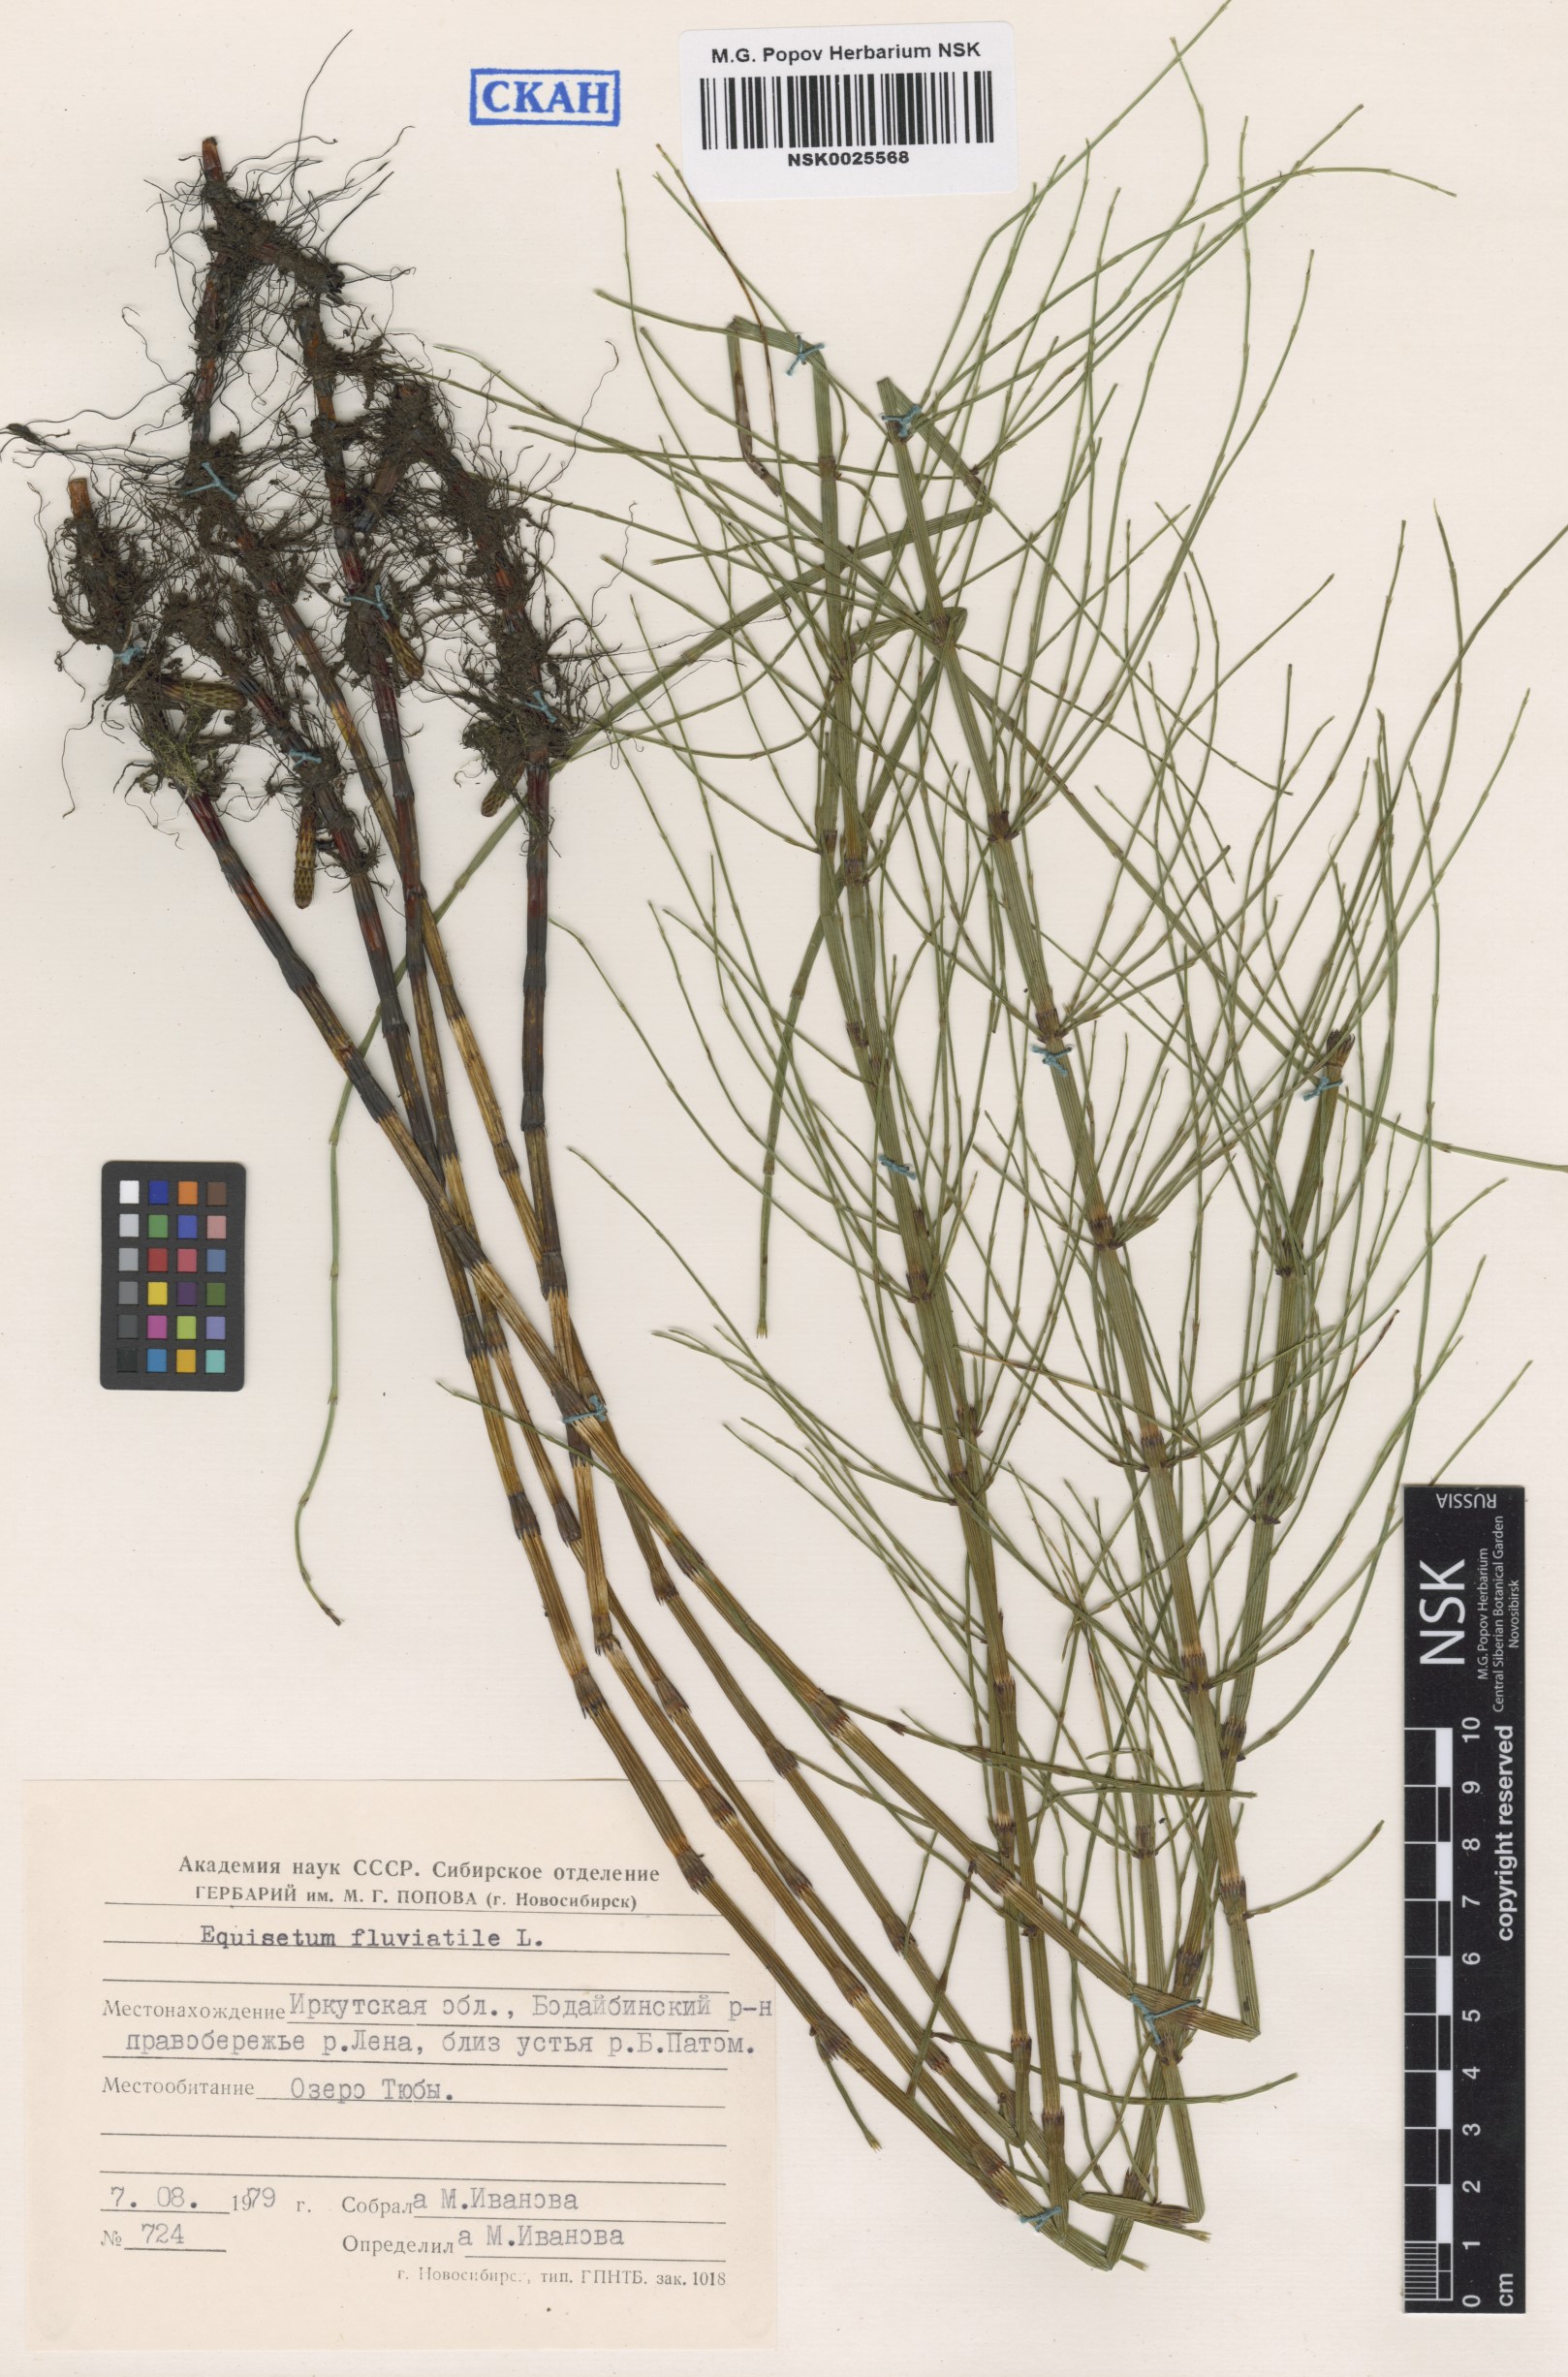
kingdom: Plantae
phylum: Tracheophyta
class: Polypodiopsida
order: Equisetales
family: Equisetaceae
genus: Equisetum
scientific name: Equisetum fluviatile
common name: Water horsetail
